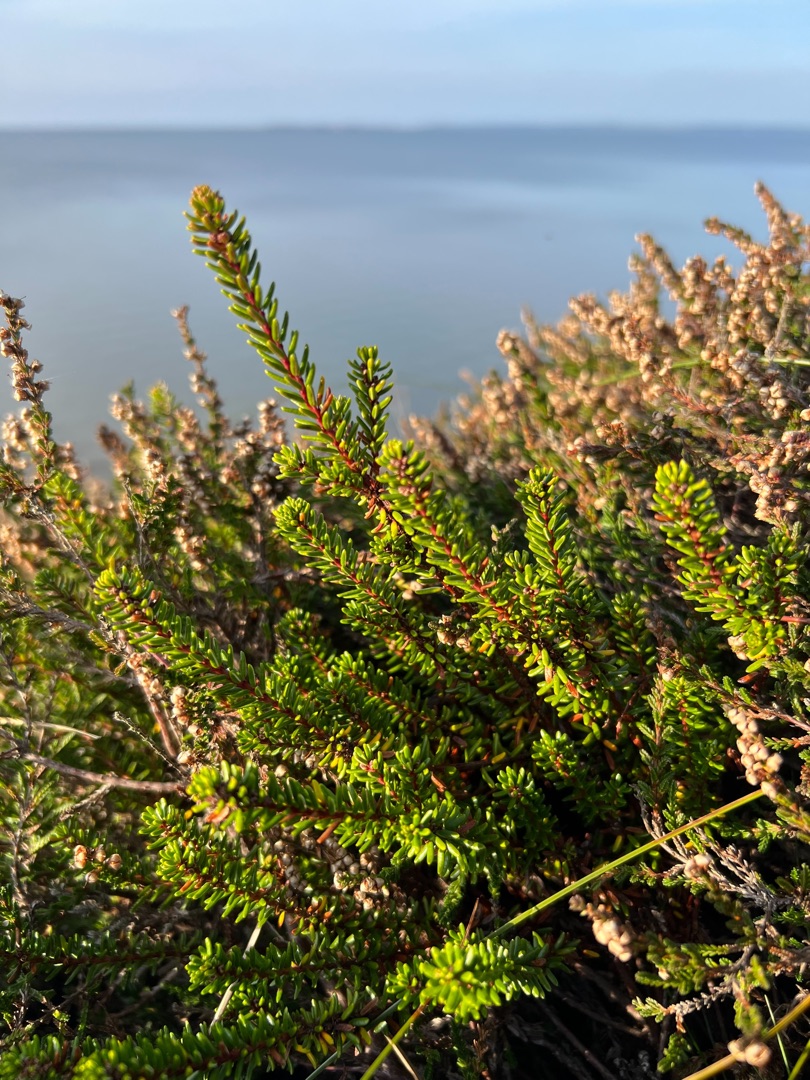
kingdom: Plantae
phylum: Tracheophyta
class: Magnoliopsida
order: Ericales
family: Ericaceae
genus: Empetrum
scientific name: Empetrum nigrum
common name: Revling
